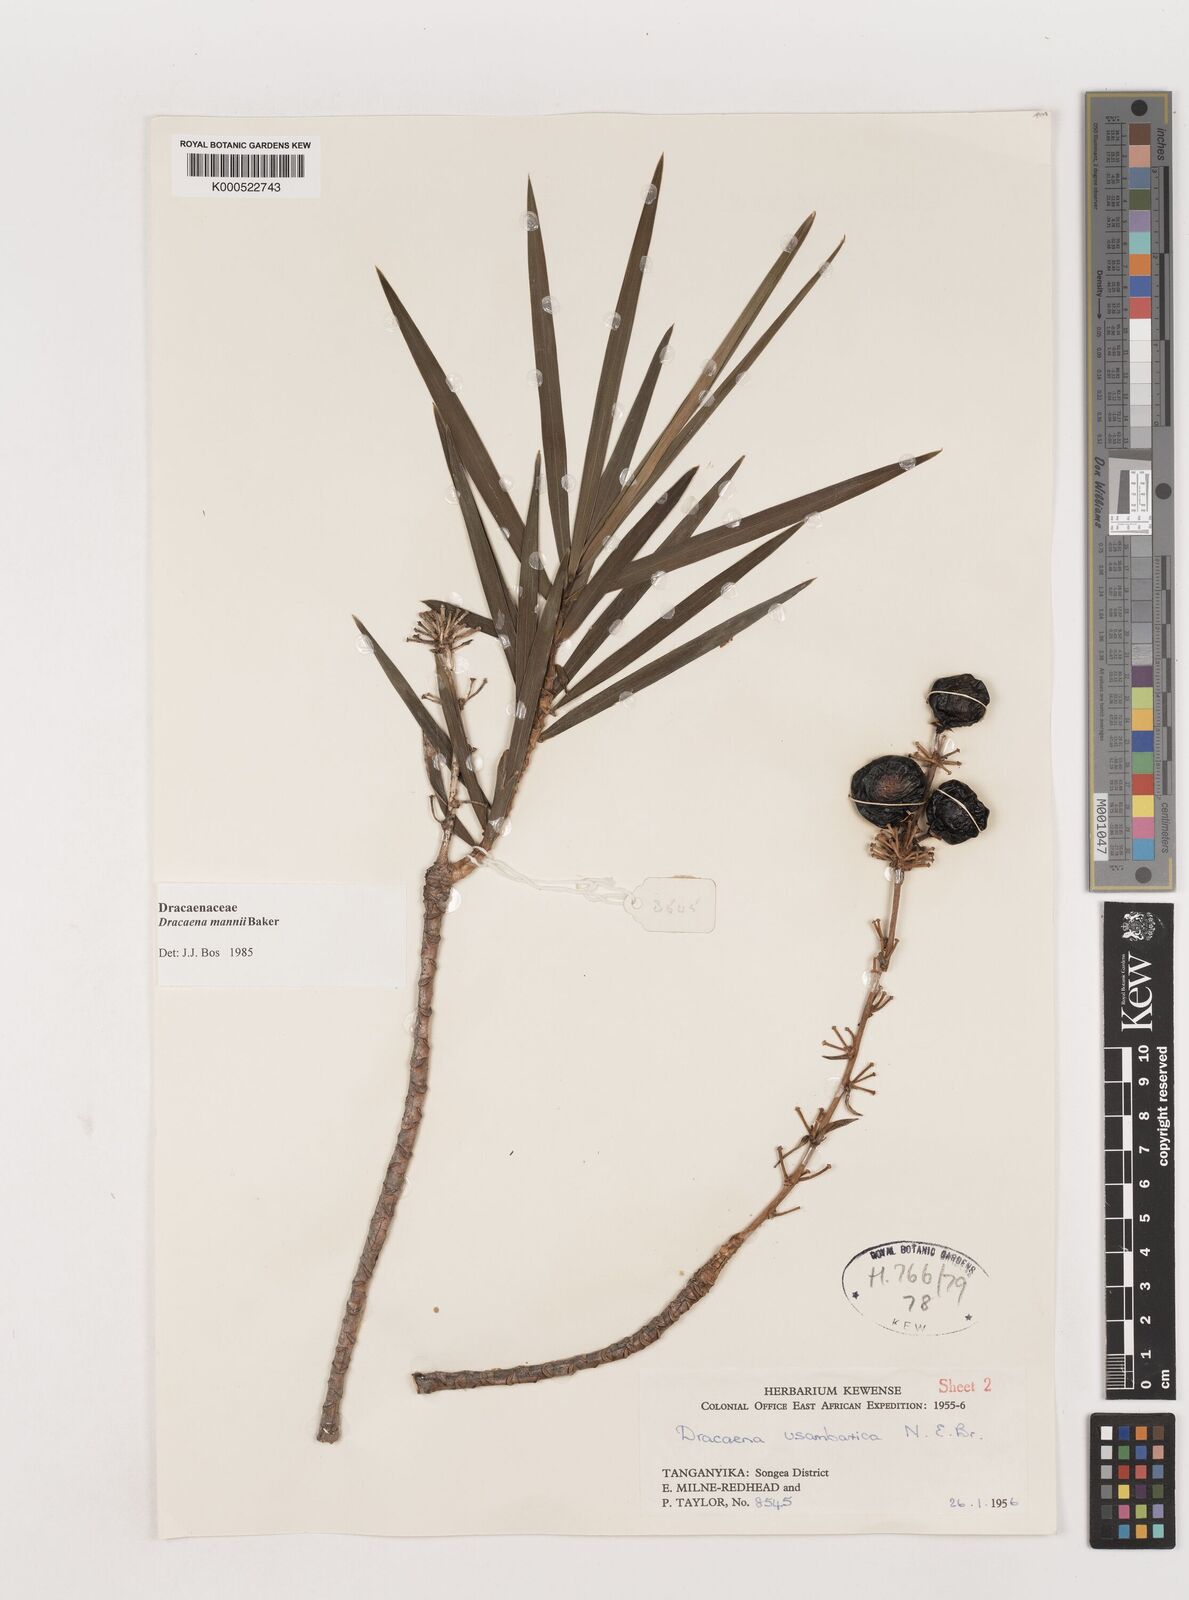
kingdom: Plantae
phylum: Tracheophyta
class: Liliopsida
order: Asparagales
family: Asparagaceae
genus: Dracaena
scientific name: Dracaena mannii
